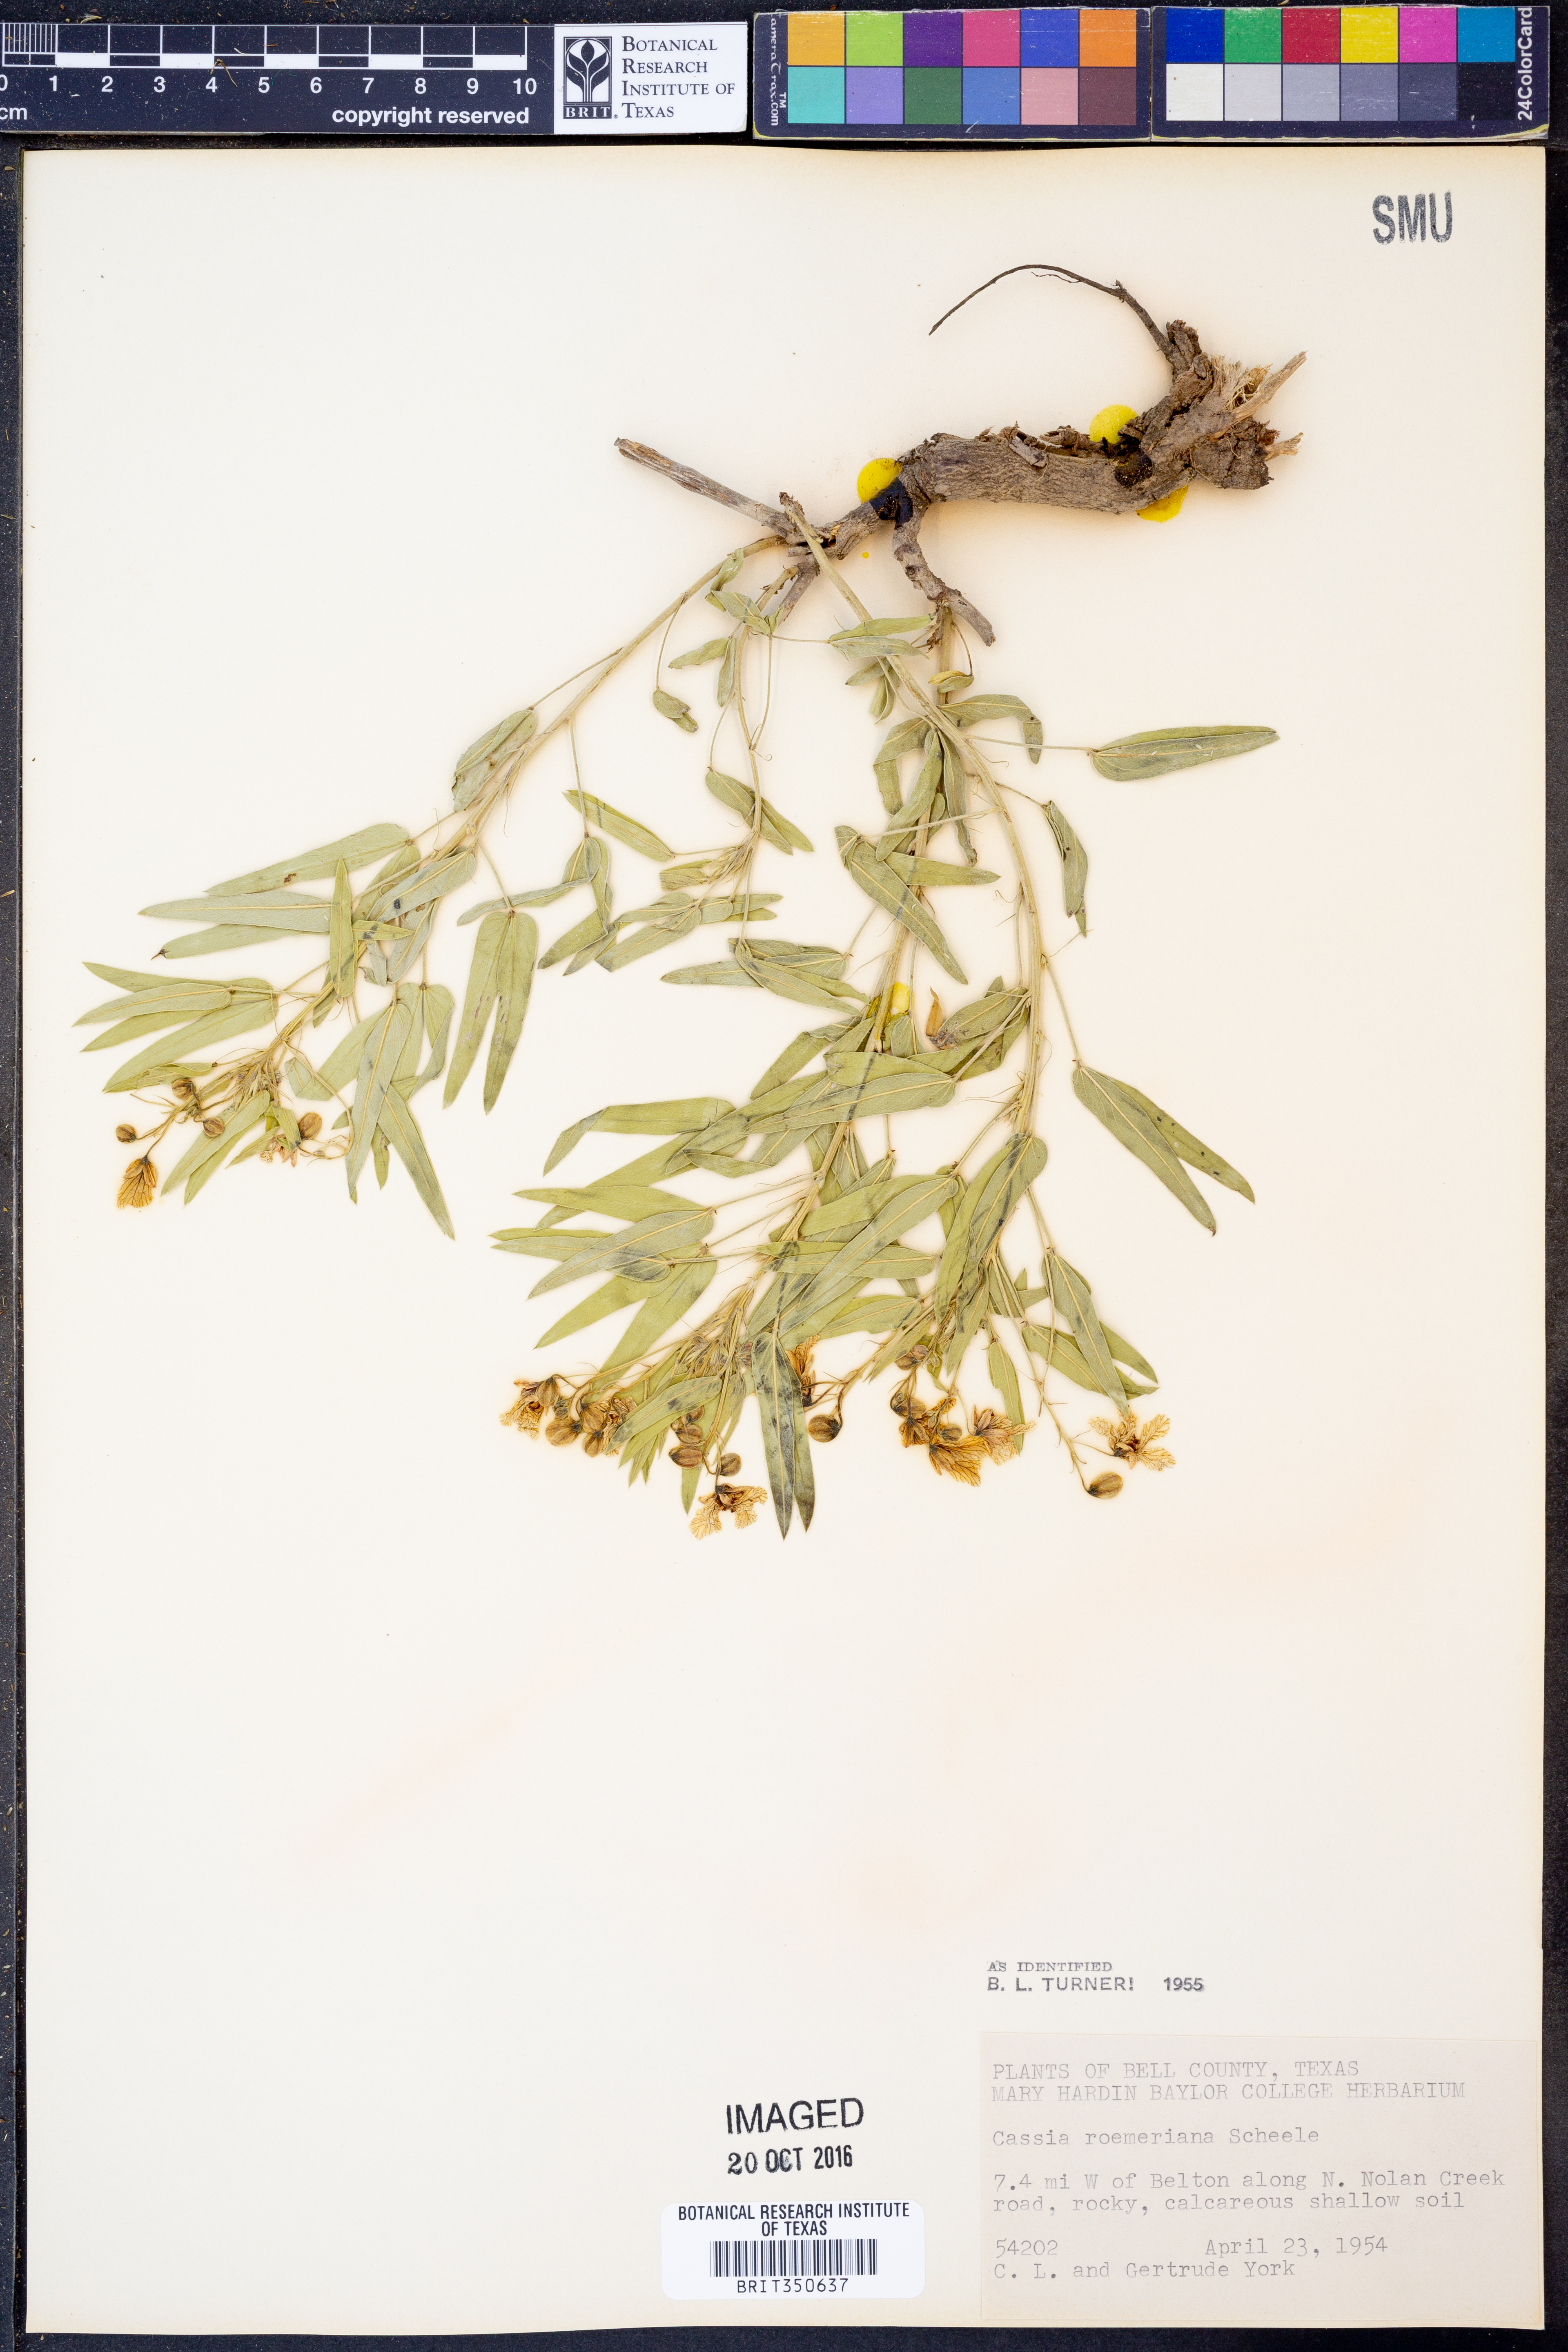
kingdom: Plantae
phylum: Tracheophyta
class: Magnoliopsida
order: Fabales
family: Fabaceae
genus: Senna
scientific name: Senna roemeriana
